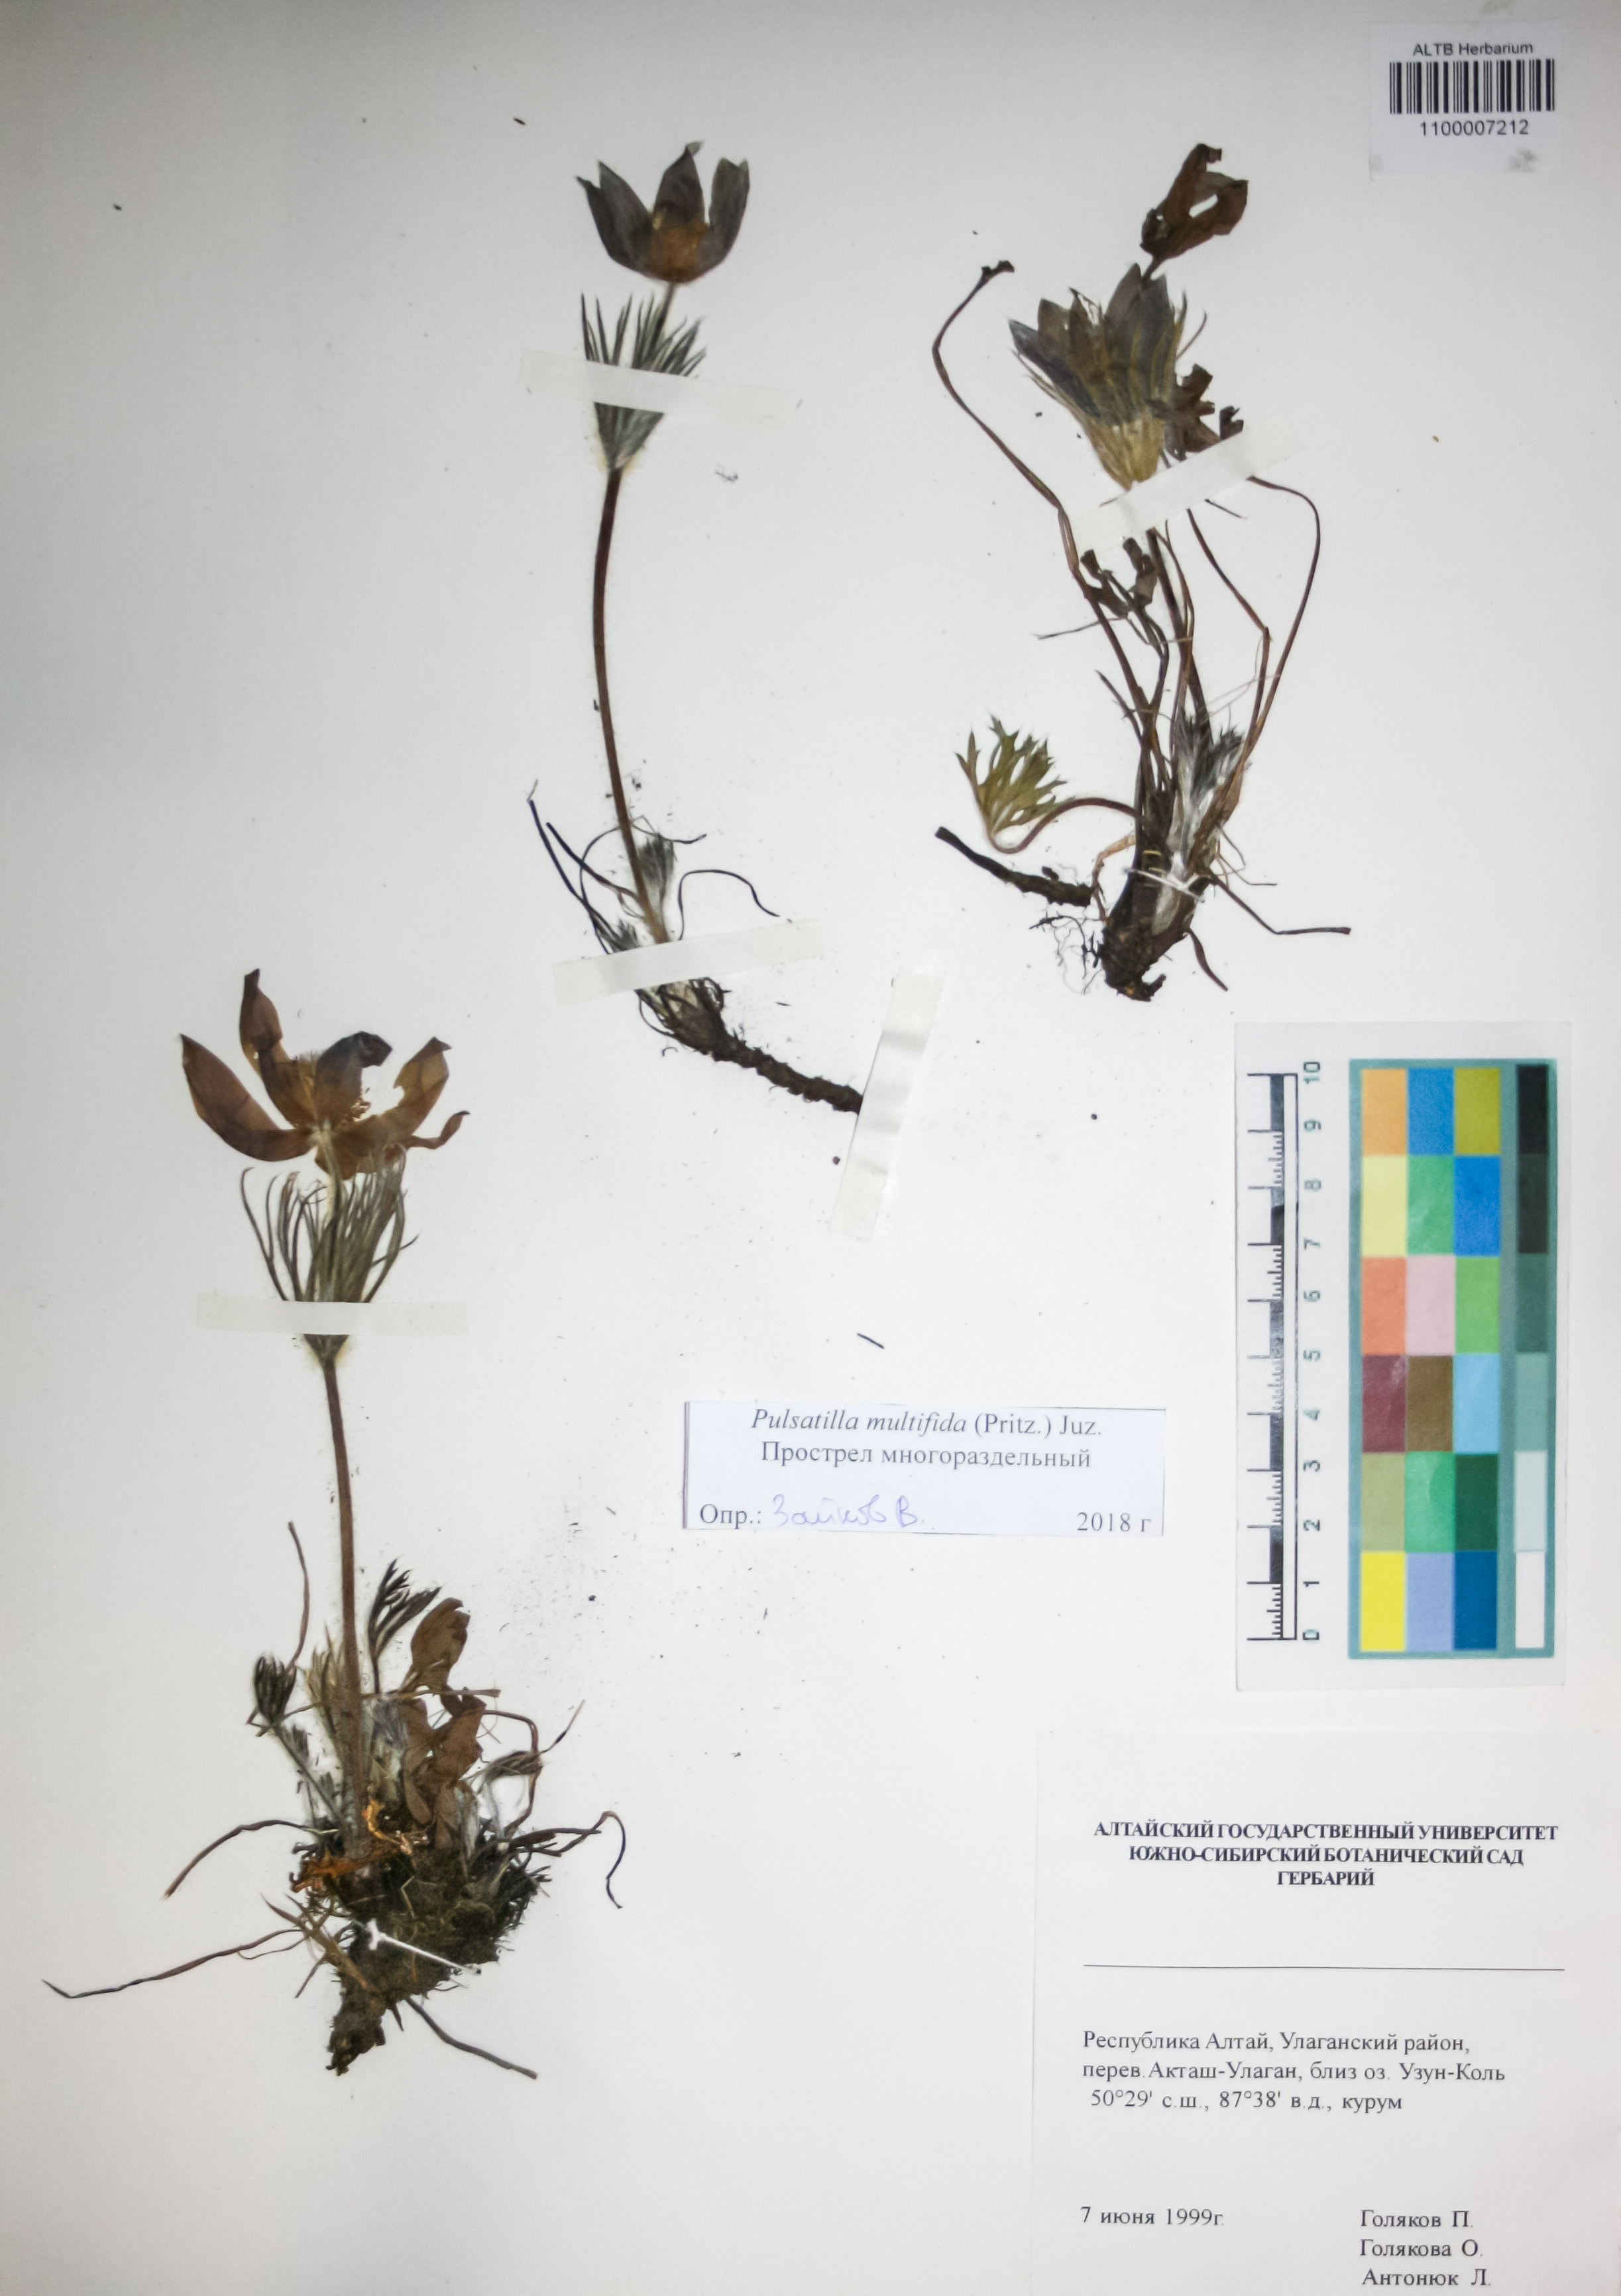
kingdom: Plantae
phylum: Tracheophyta
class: Magnoliopsida
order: Ranunculales
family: Ranunculaceae
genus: Pulsatilla
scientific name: Pulsatilla patens
